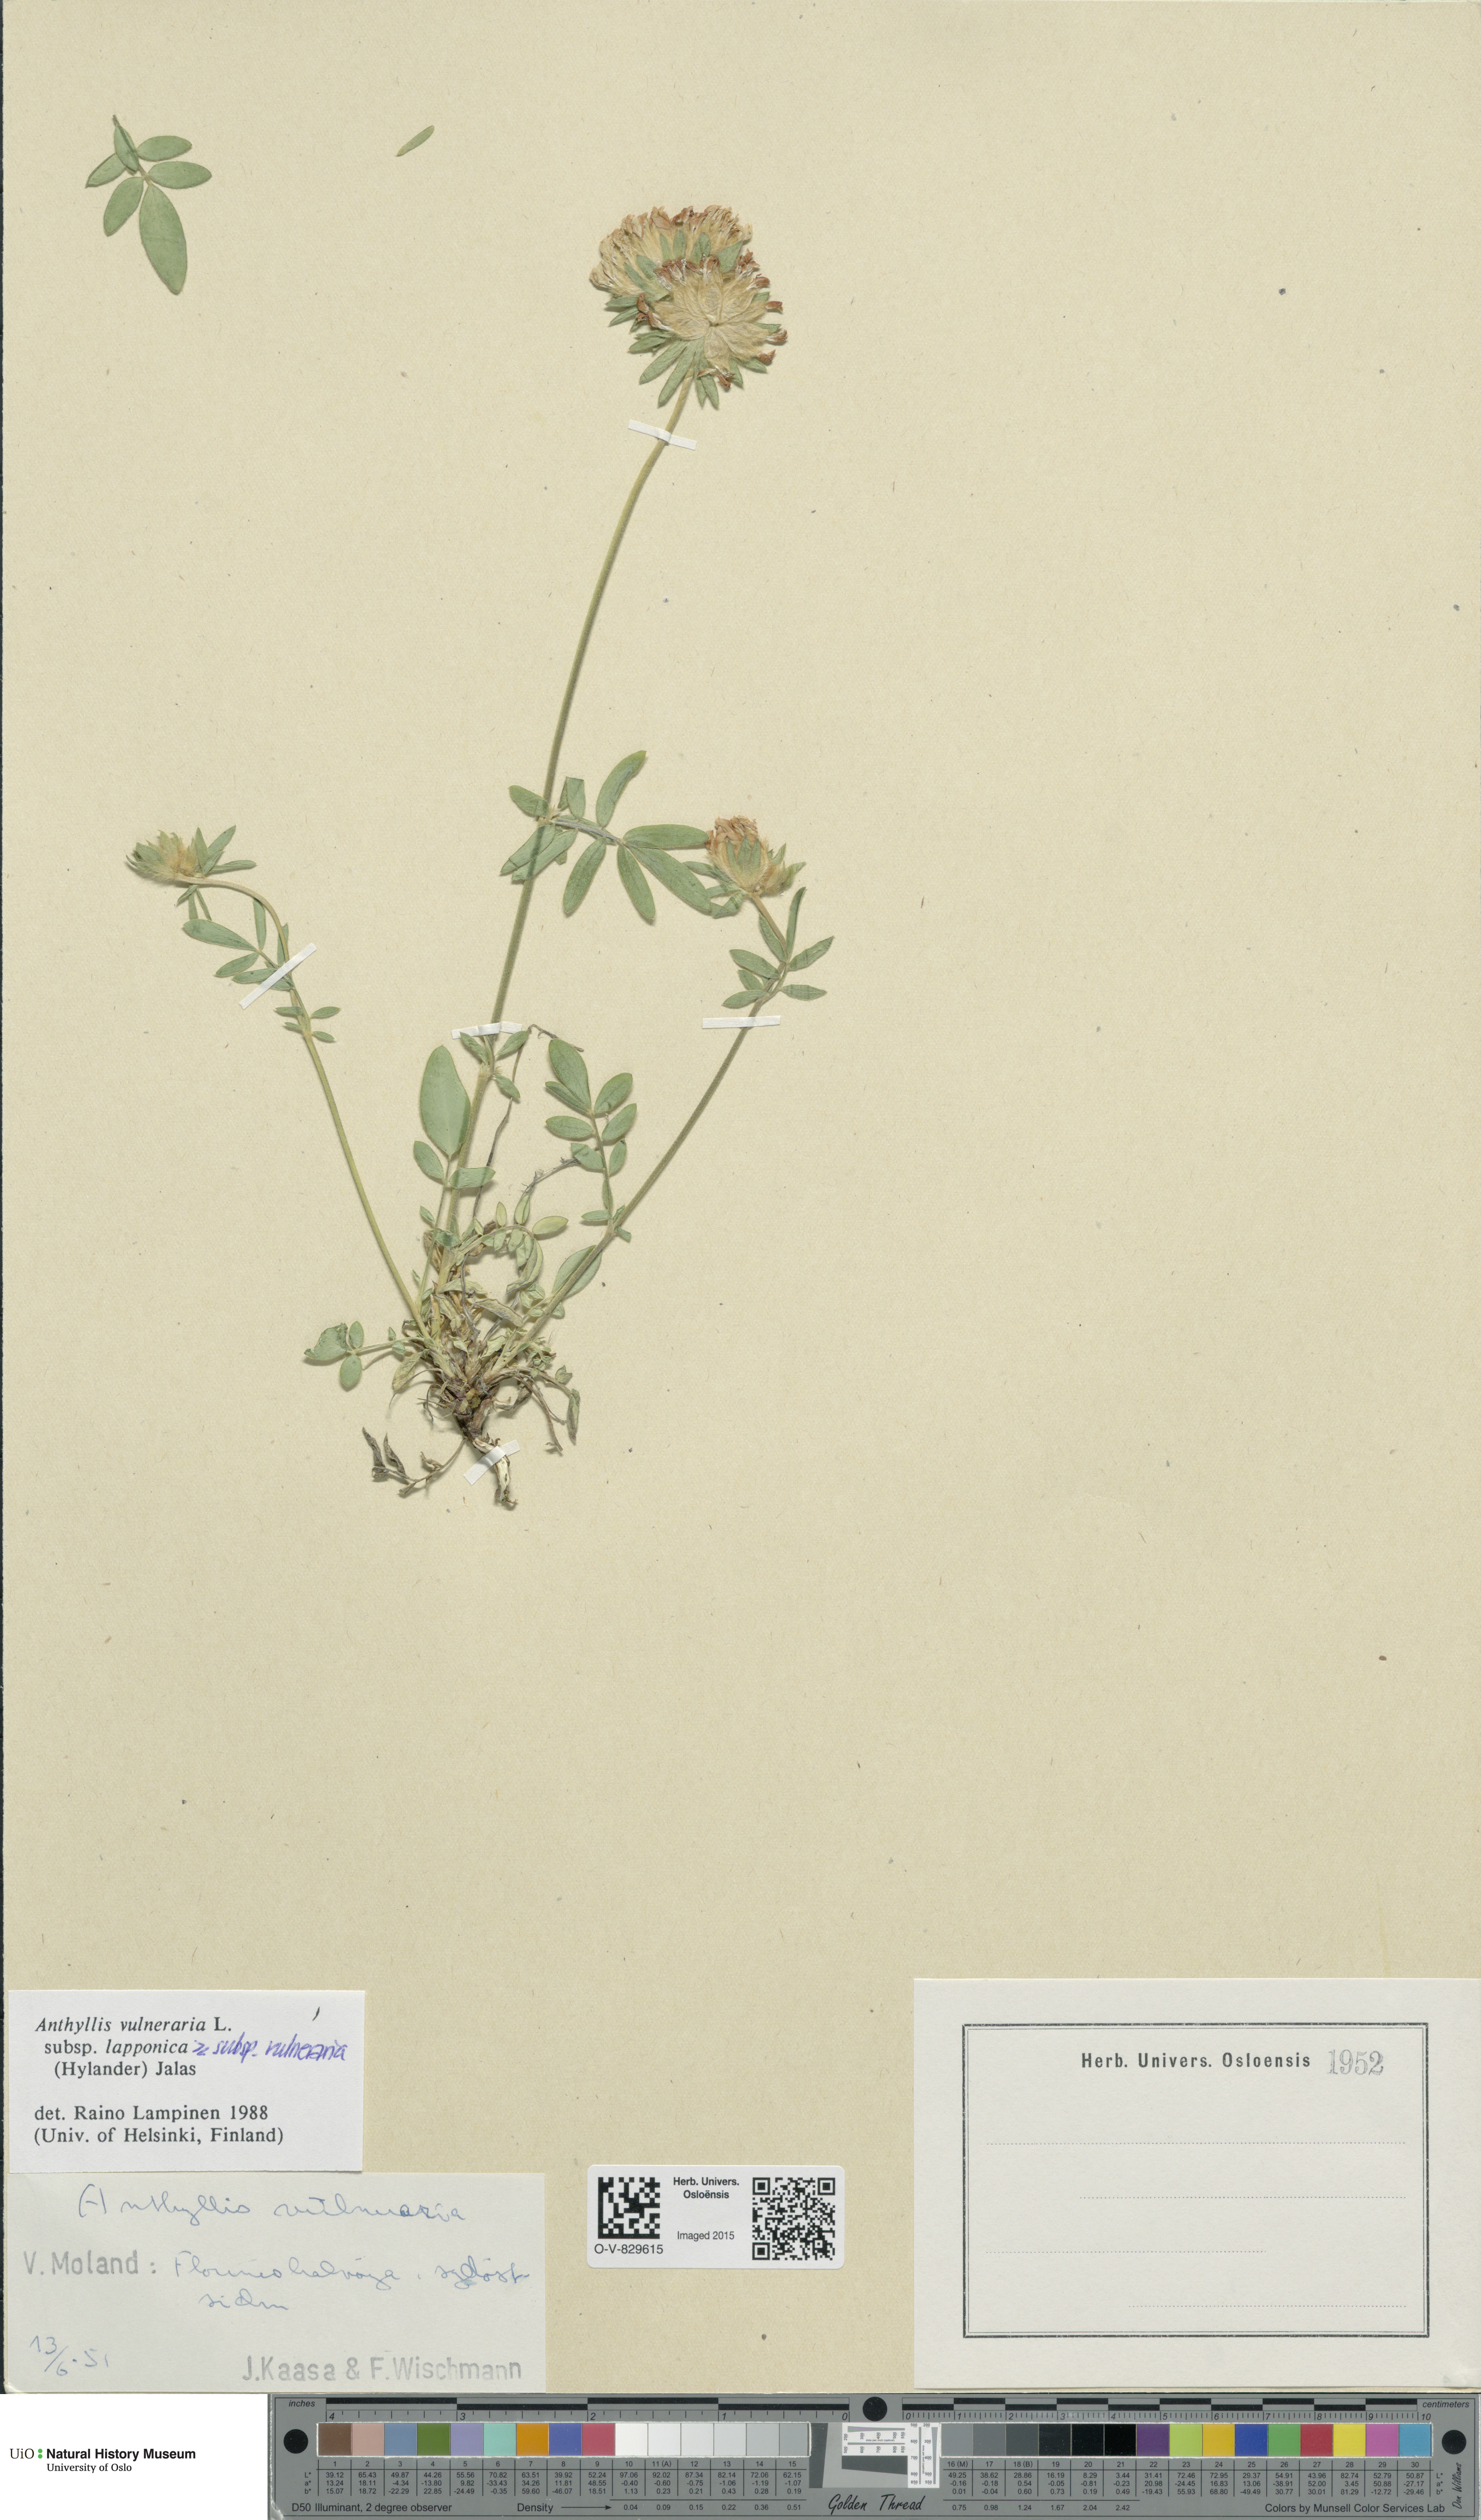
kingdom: Plantae
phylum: Tracheophyta
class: Magnoliopsida
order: Fabales
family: Fabaceae
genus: Anthyllis
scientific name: Anthyllis
